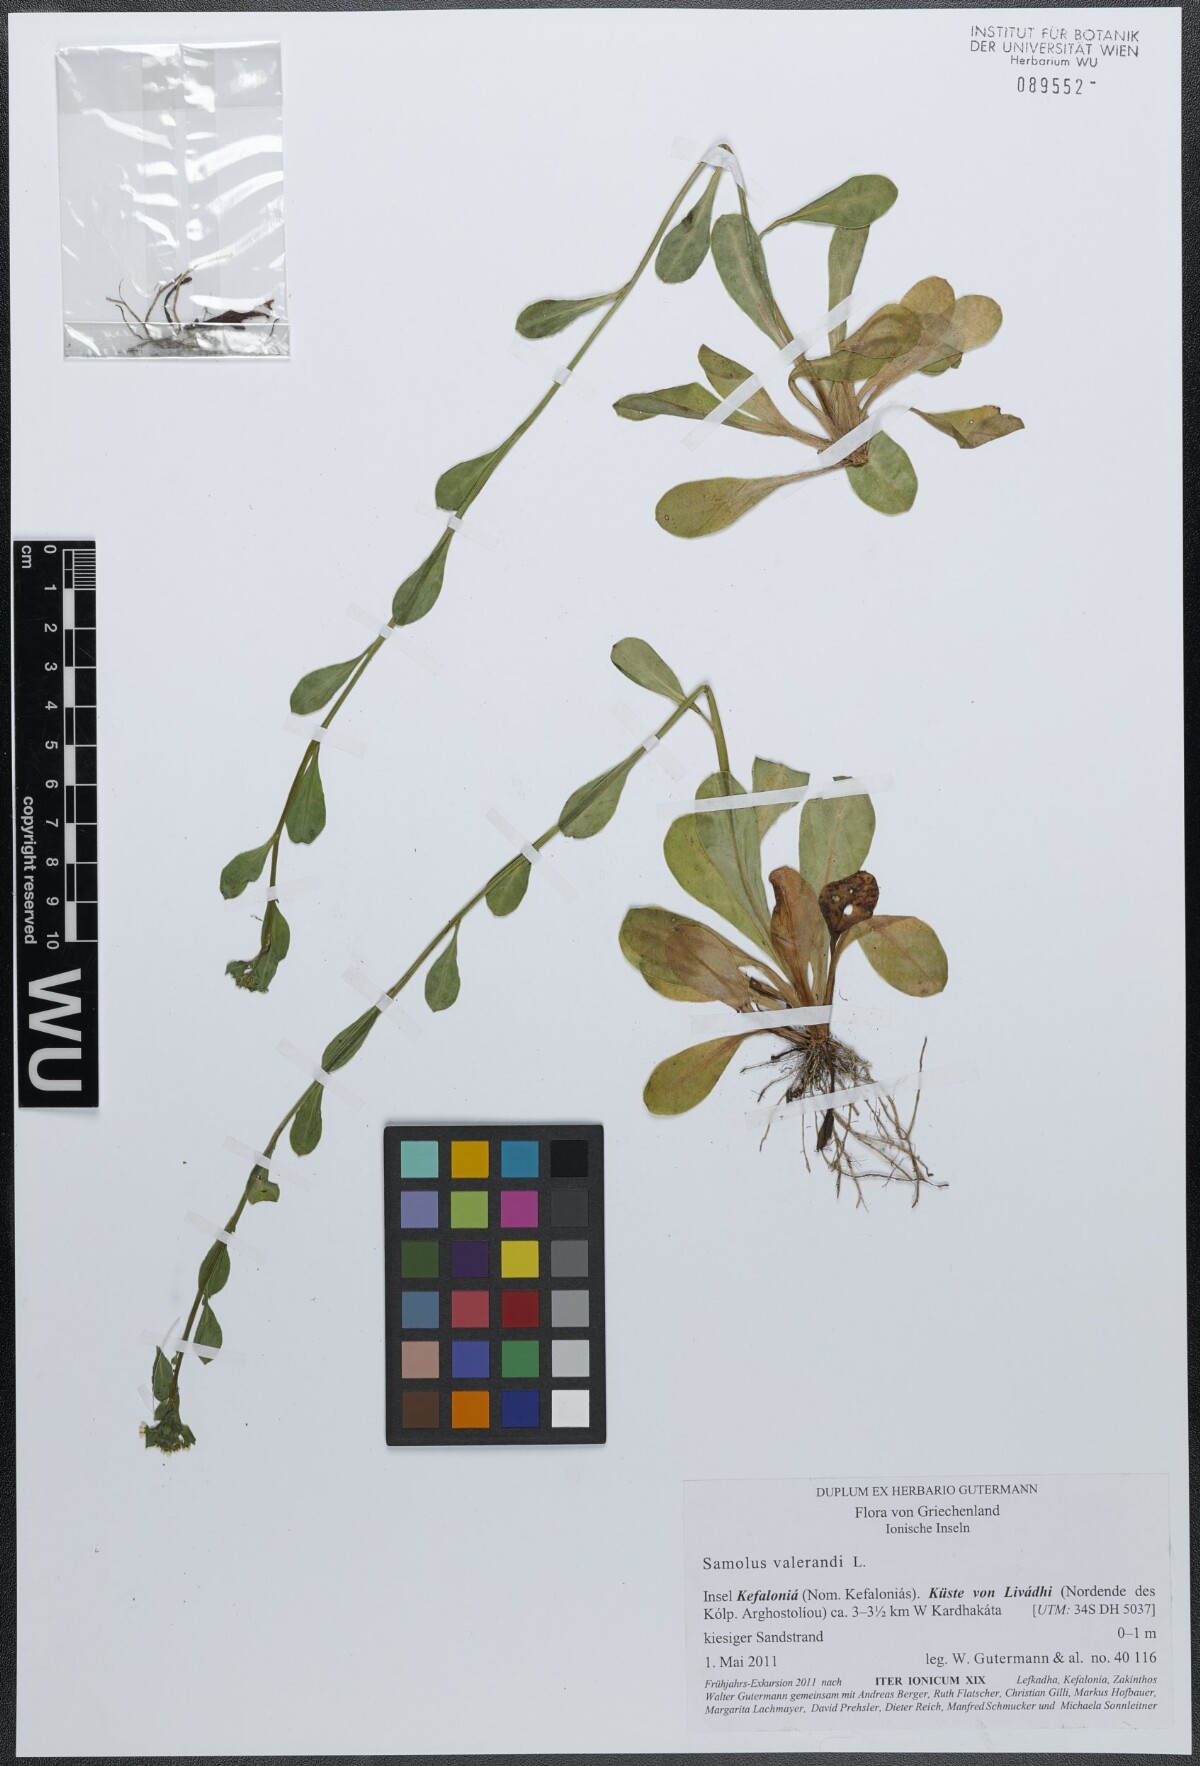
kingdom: Plantae
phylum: Tracheophyta
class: Magnoliopsida
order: Ericales
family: Primulaceae
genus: Samolus
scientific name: Samolus valerandi
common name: Brookweed
